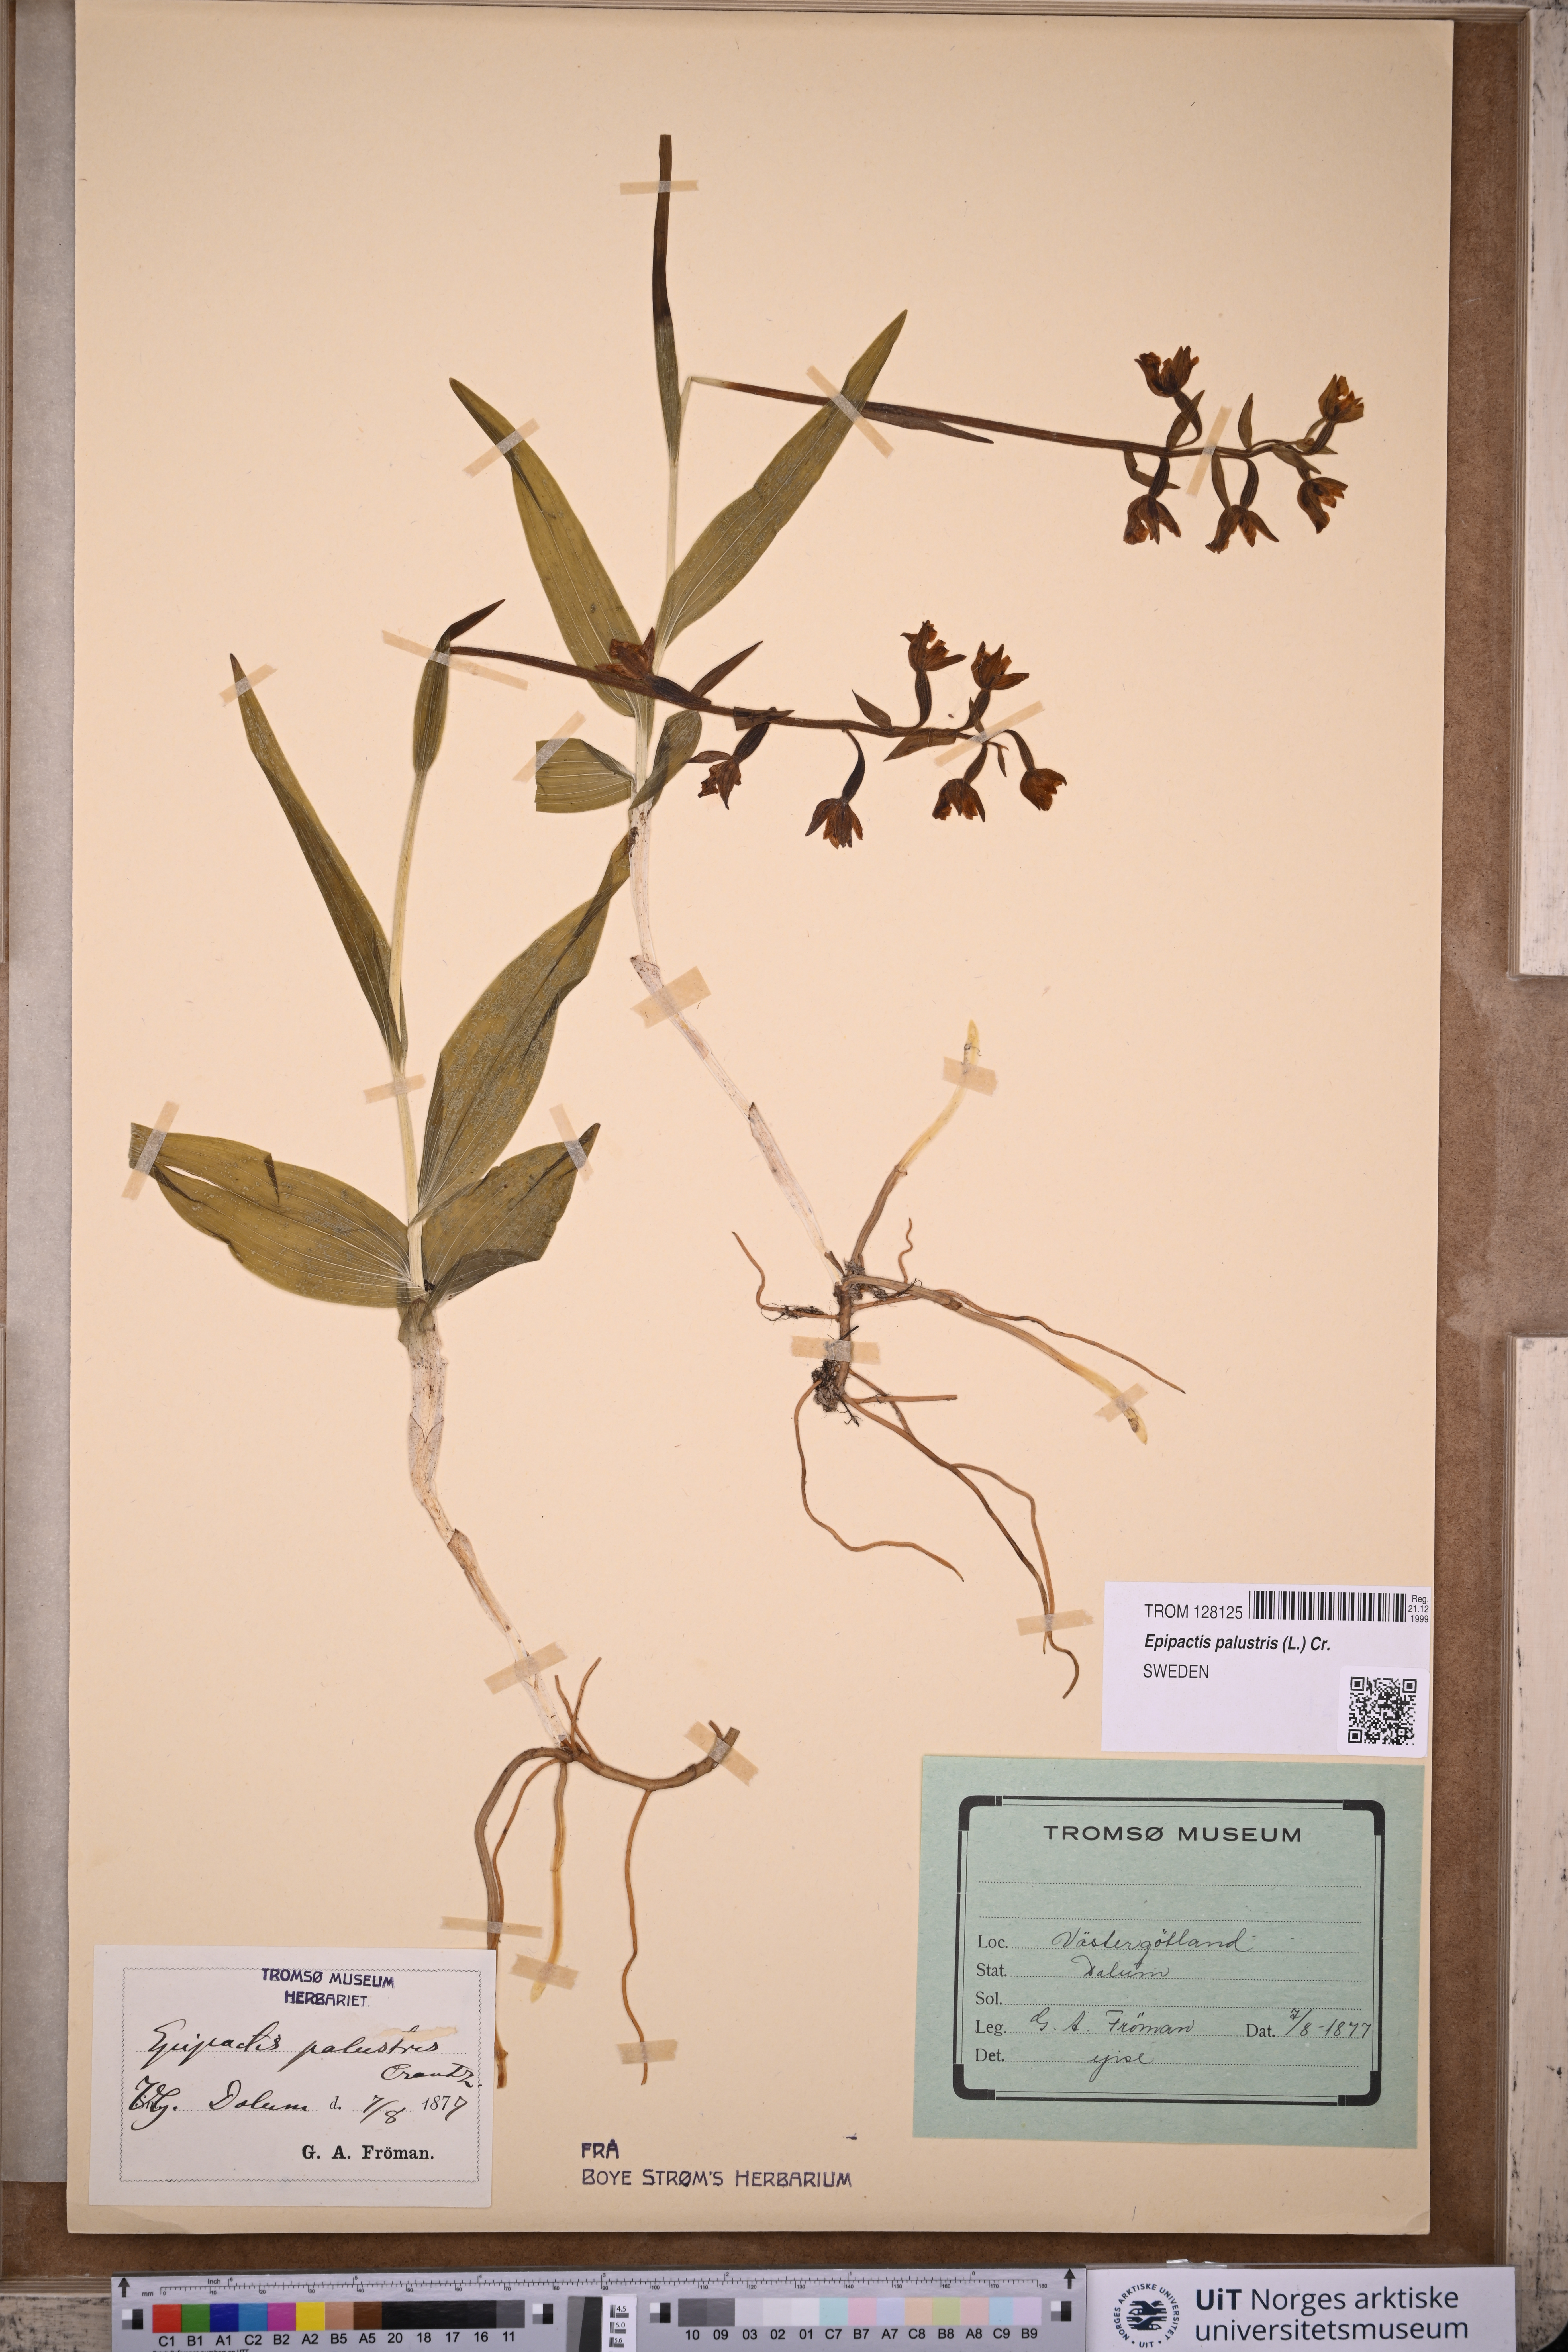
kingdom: Plantae
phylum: Tracheophyta
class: Liliopsida
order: Asparagales
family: Orchidaceae
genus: Epipactis
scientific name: Epipactis palustris
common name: Marsh helleborine
